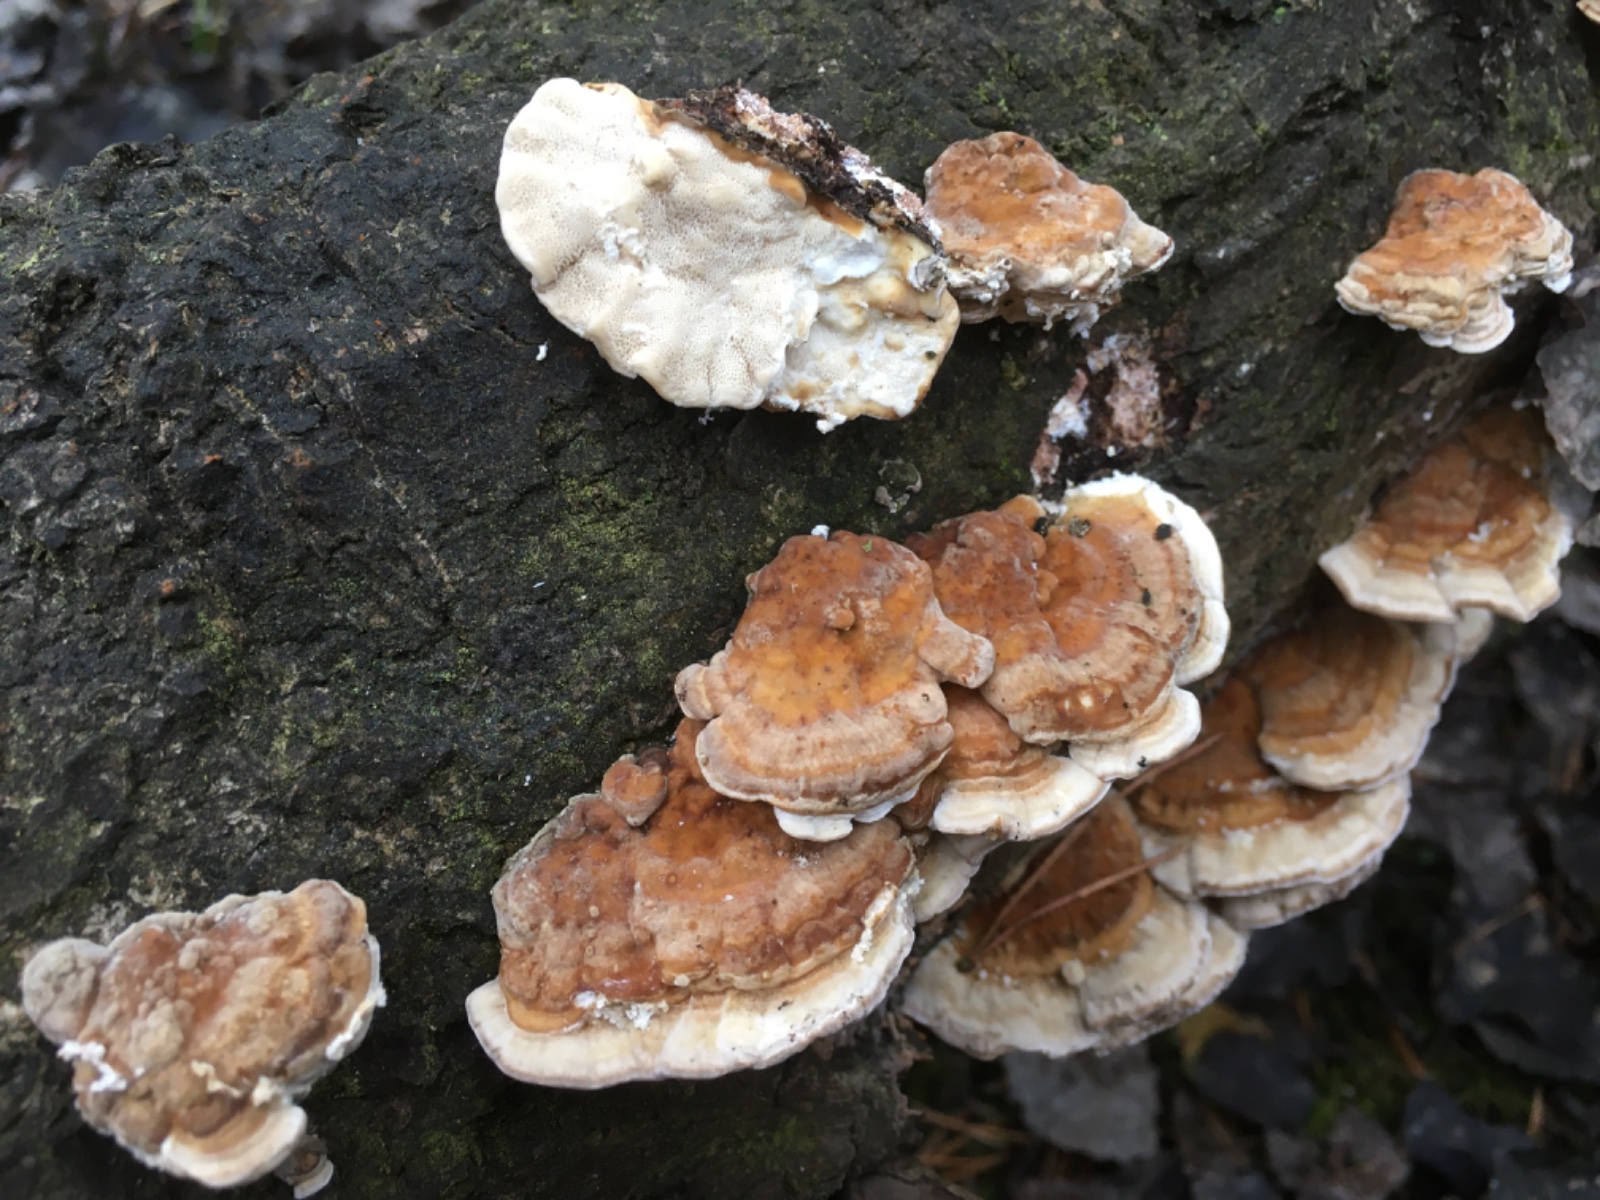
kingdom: Fungi
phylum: Basidiomycota
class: Agaricomycetes
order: Polyporales
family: Polyporaceae
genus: Trametes
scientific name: Trametes ochracea
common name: bæltet læderporesvamp
